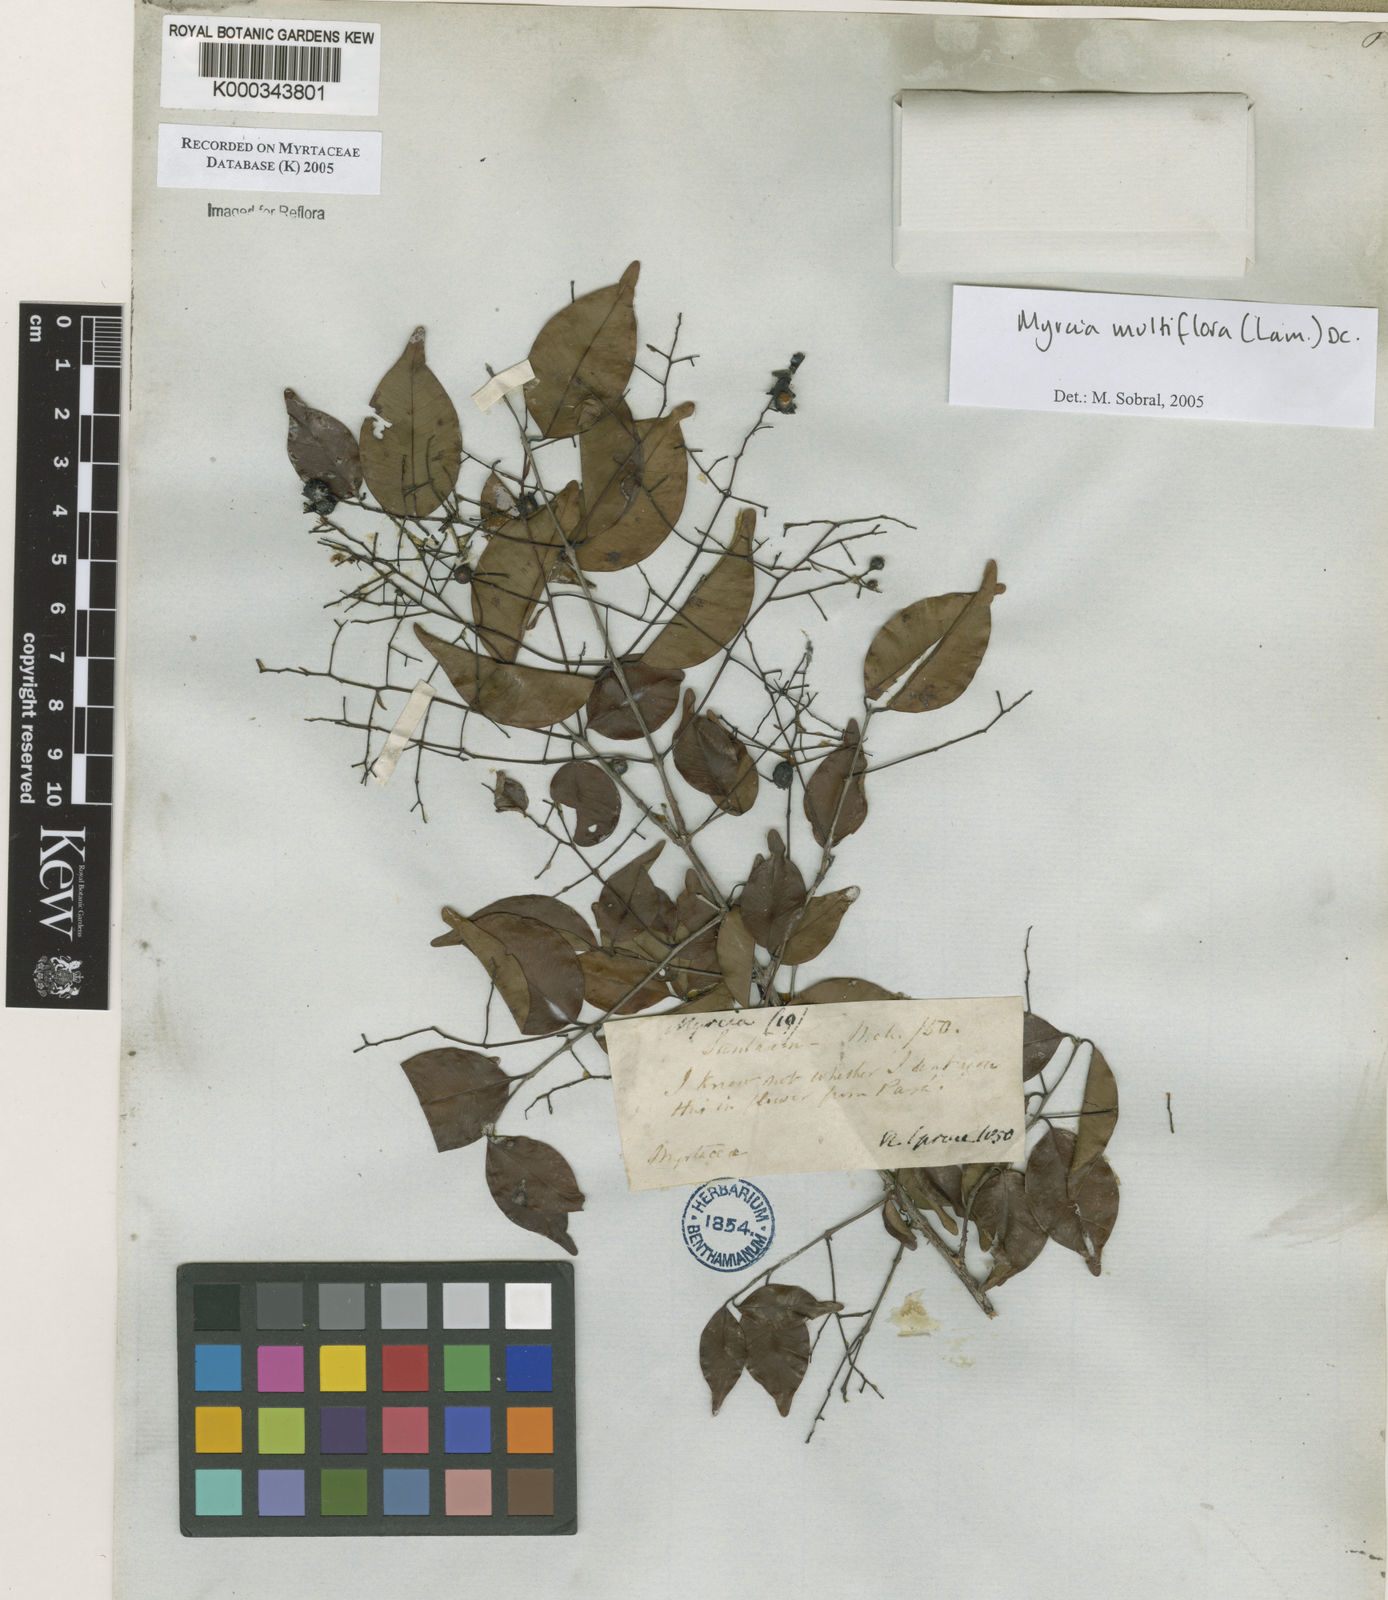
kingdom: Plantae
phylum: Tracheophyta
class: Magnoliopsida
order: Myrtales
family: Myrtaceae
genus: Myrcia
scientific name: Myrcia multiflora
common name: Pedra hume
